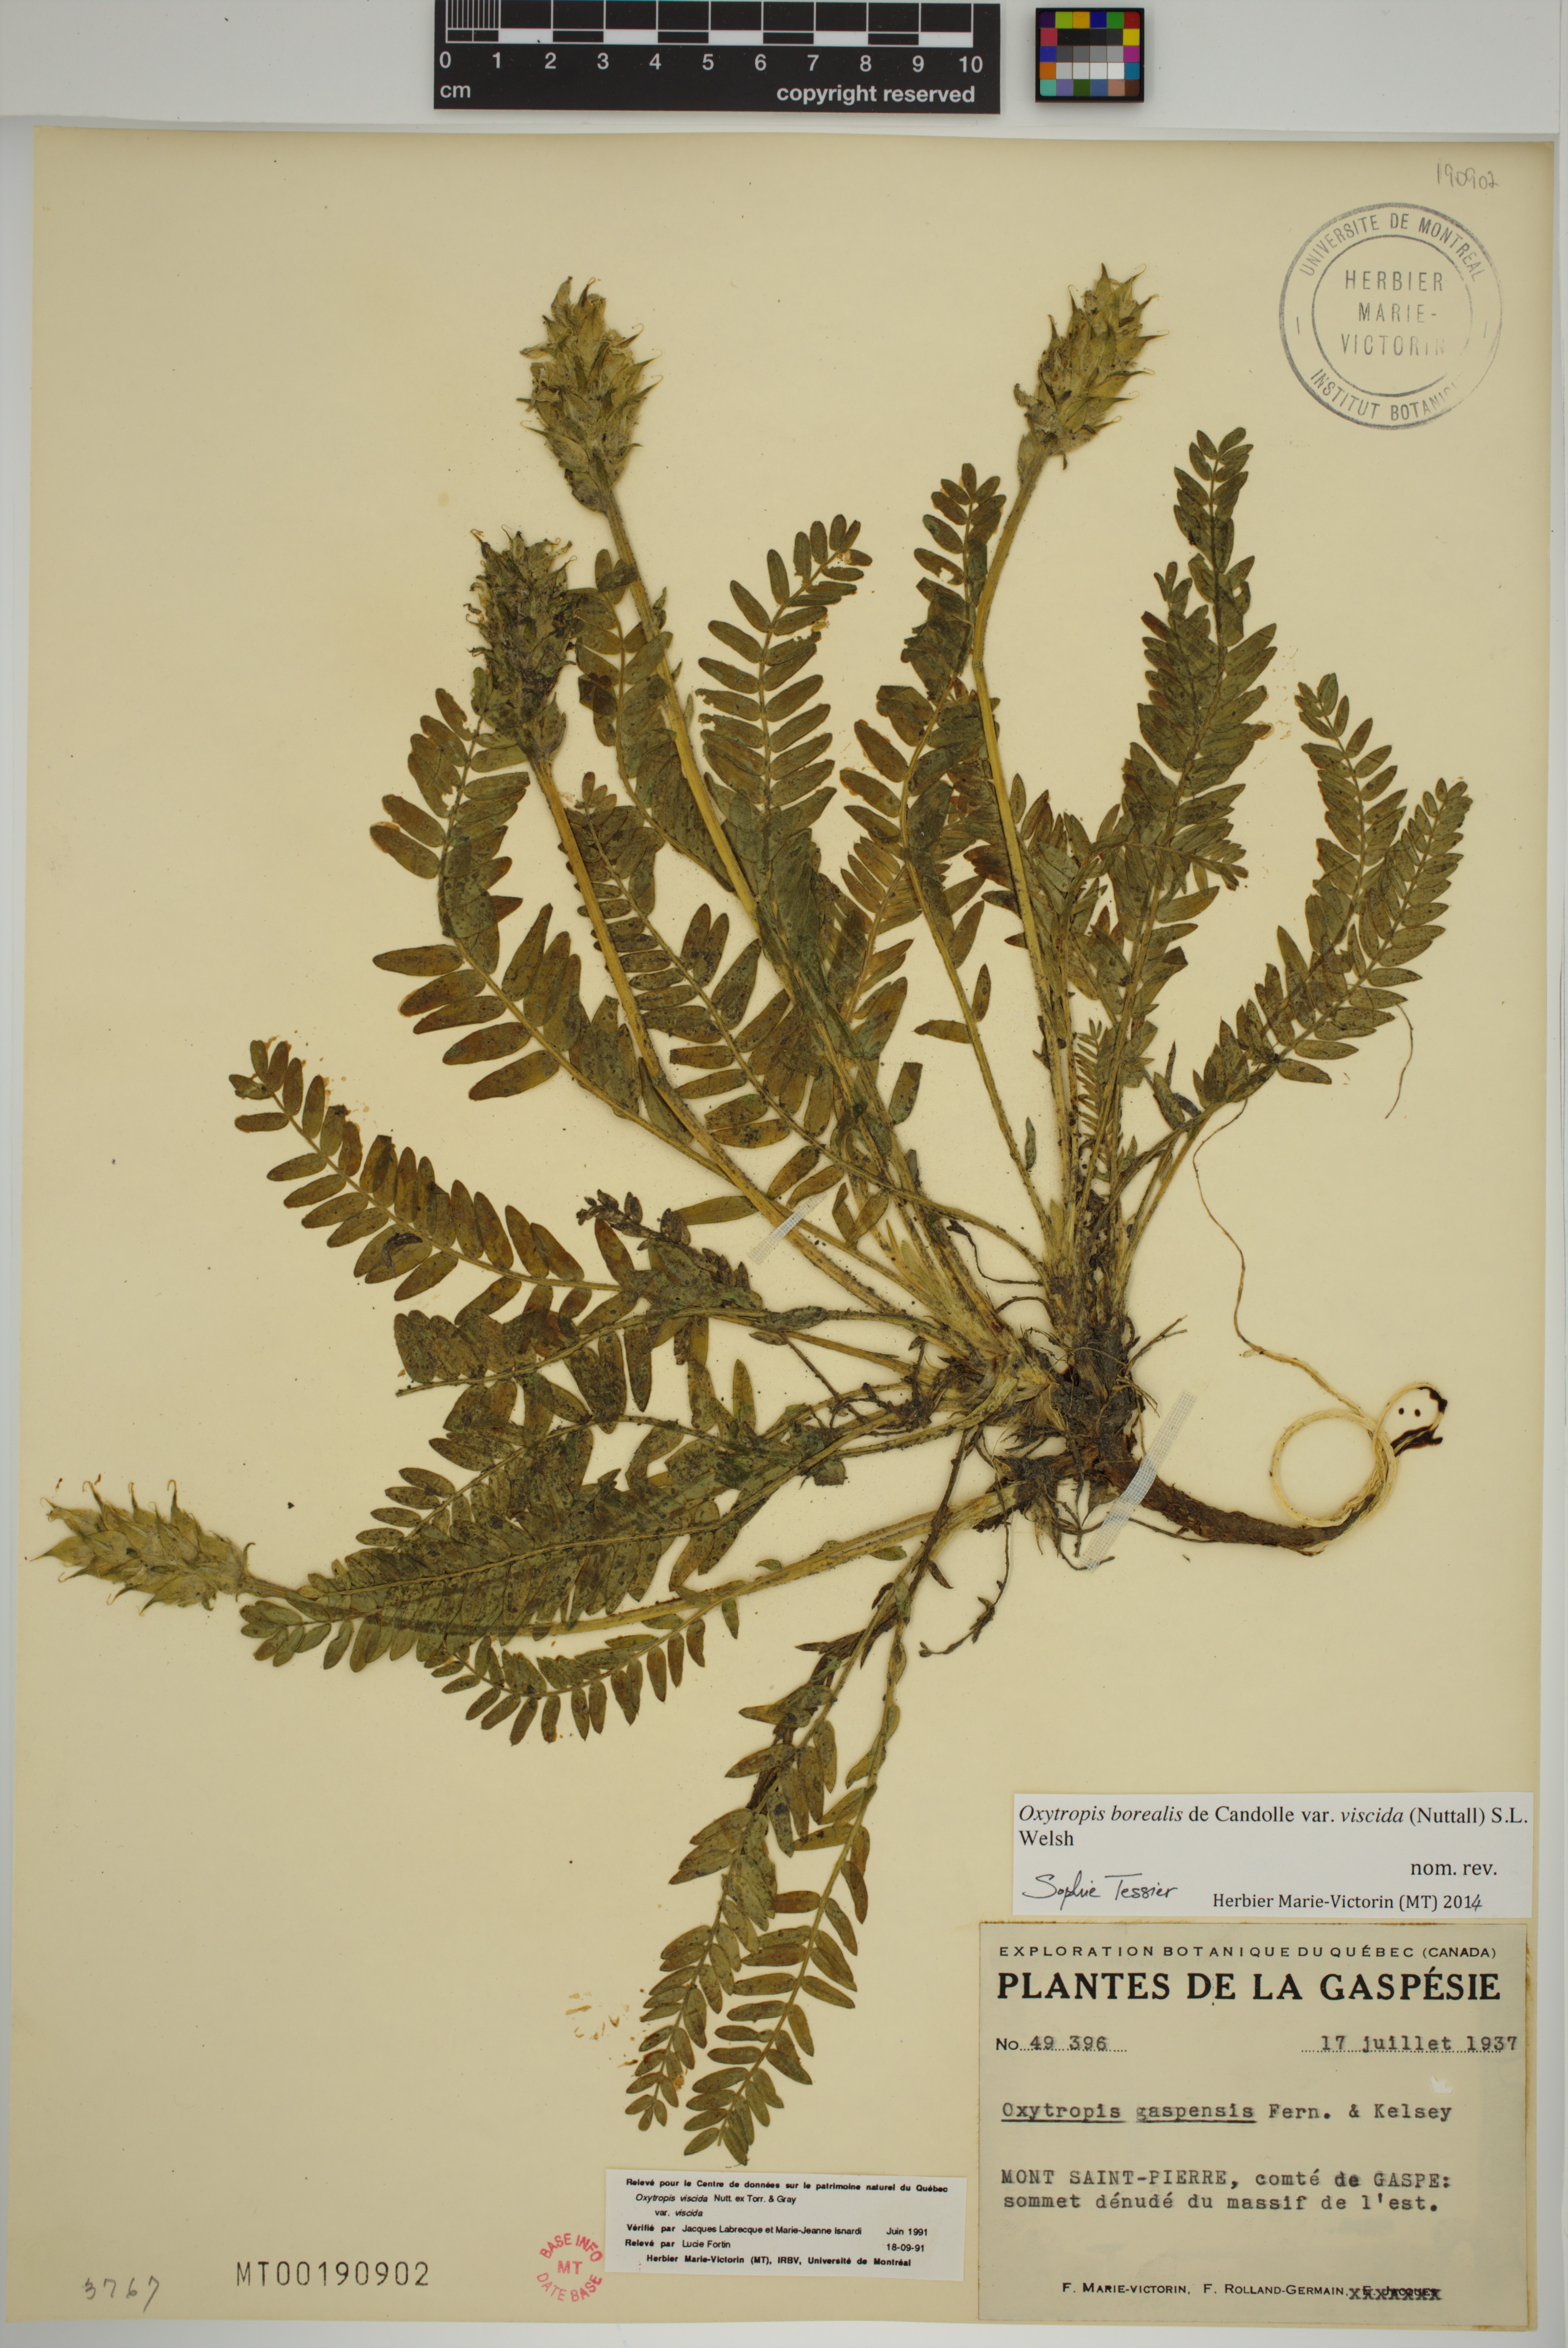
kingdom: Plantae
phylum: Tracheophyta
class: Magnoliopsida
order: Fabales
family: Fabaceae
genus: Oxytropis
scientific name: Oxytropis borealis
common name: Boreal locoweed
